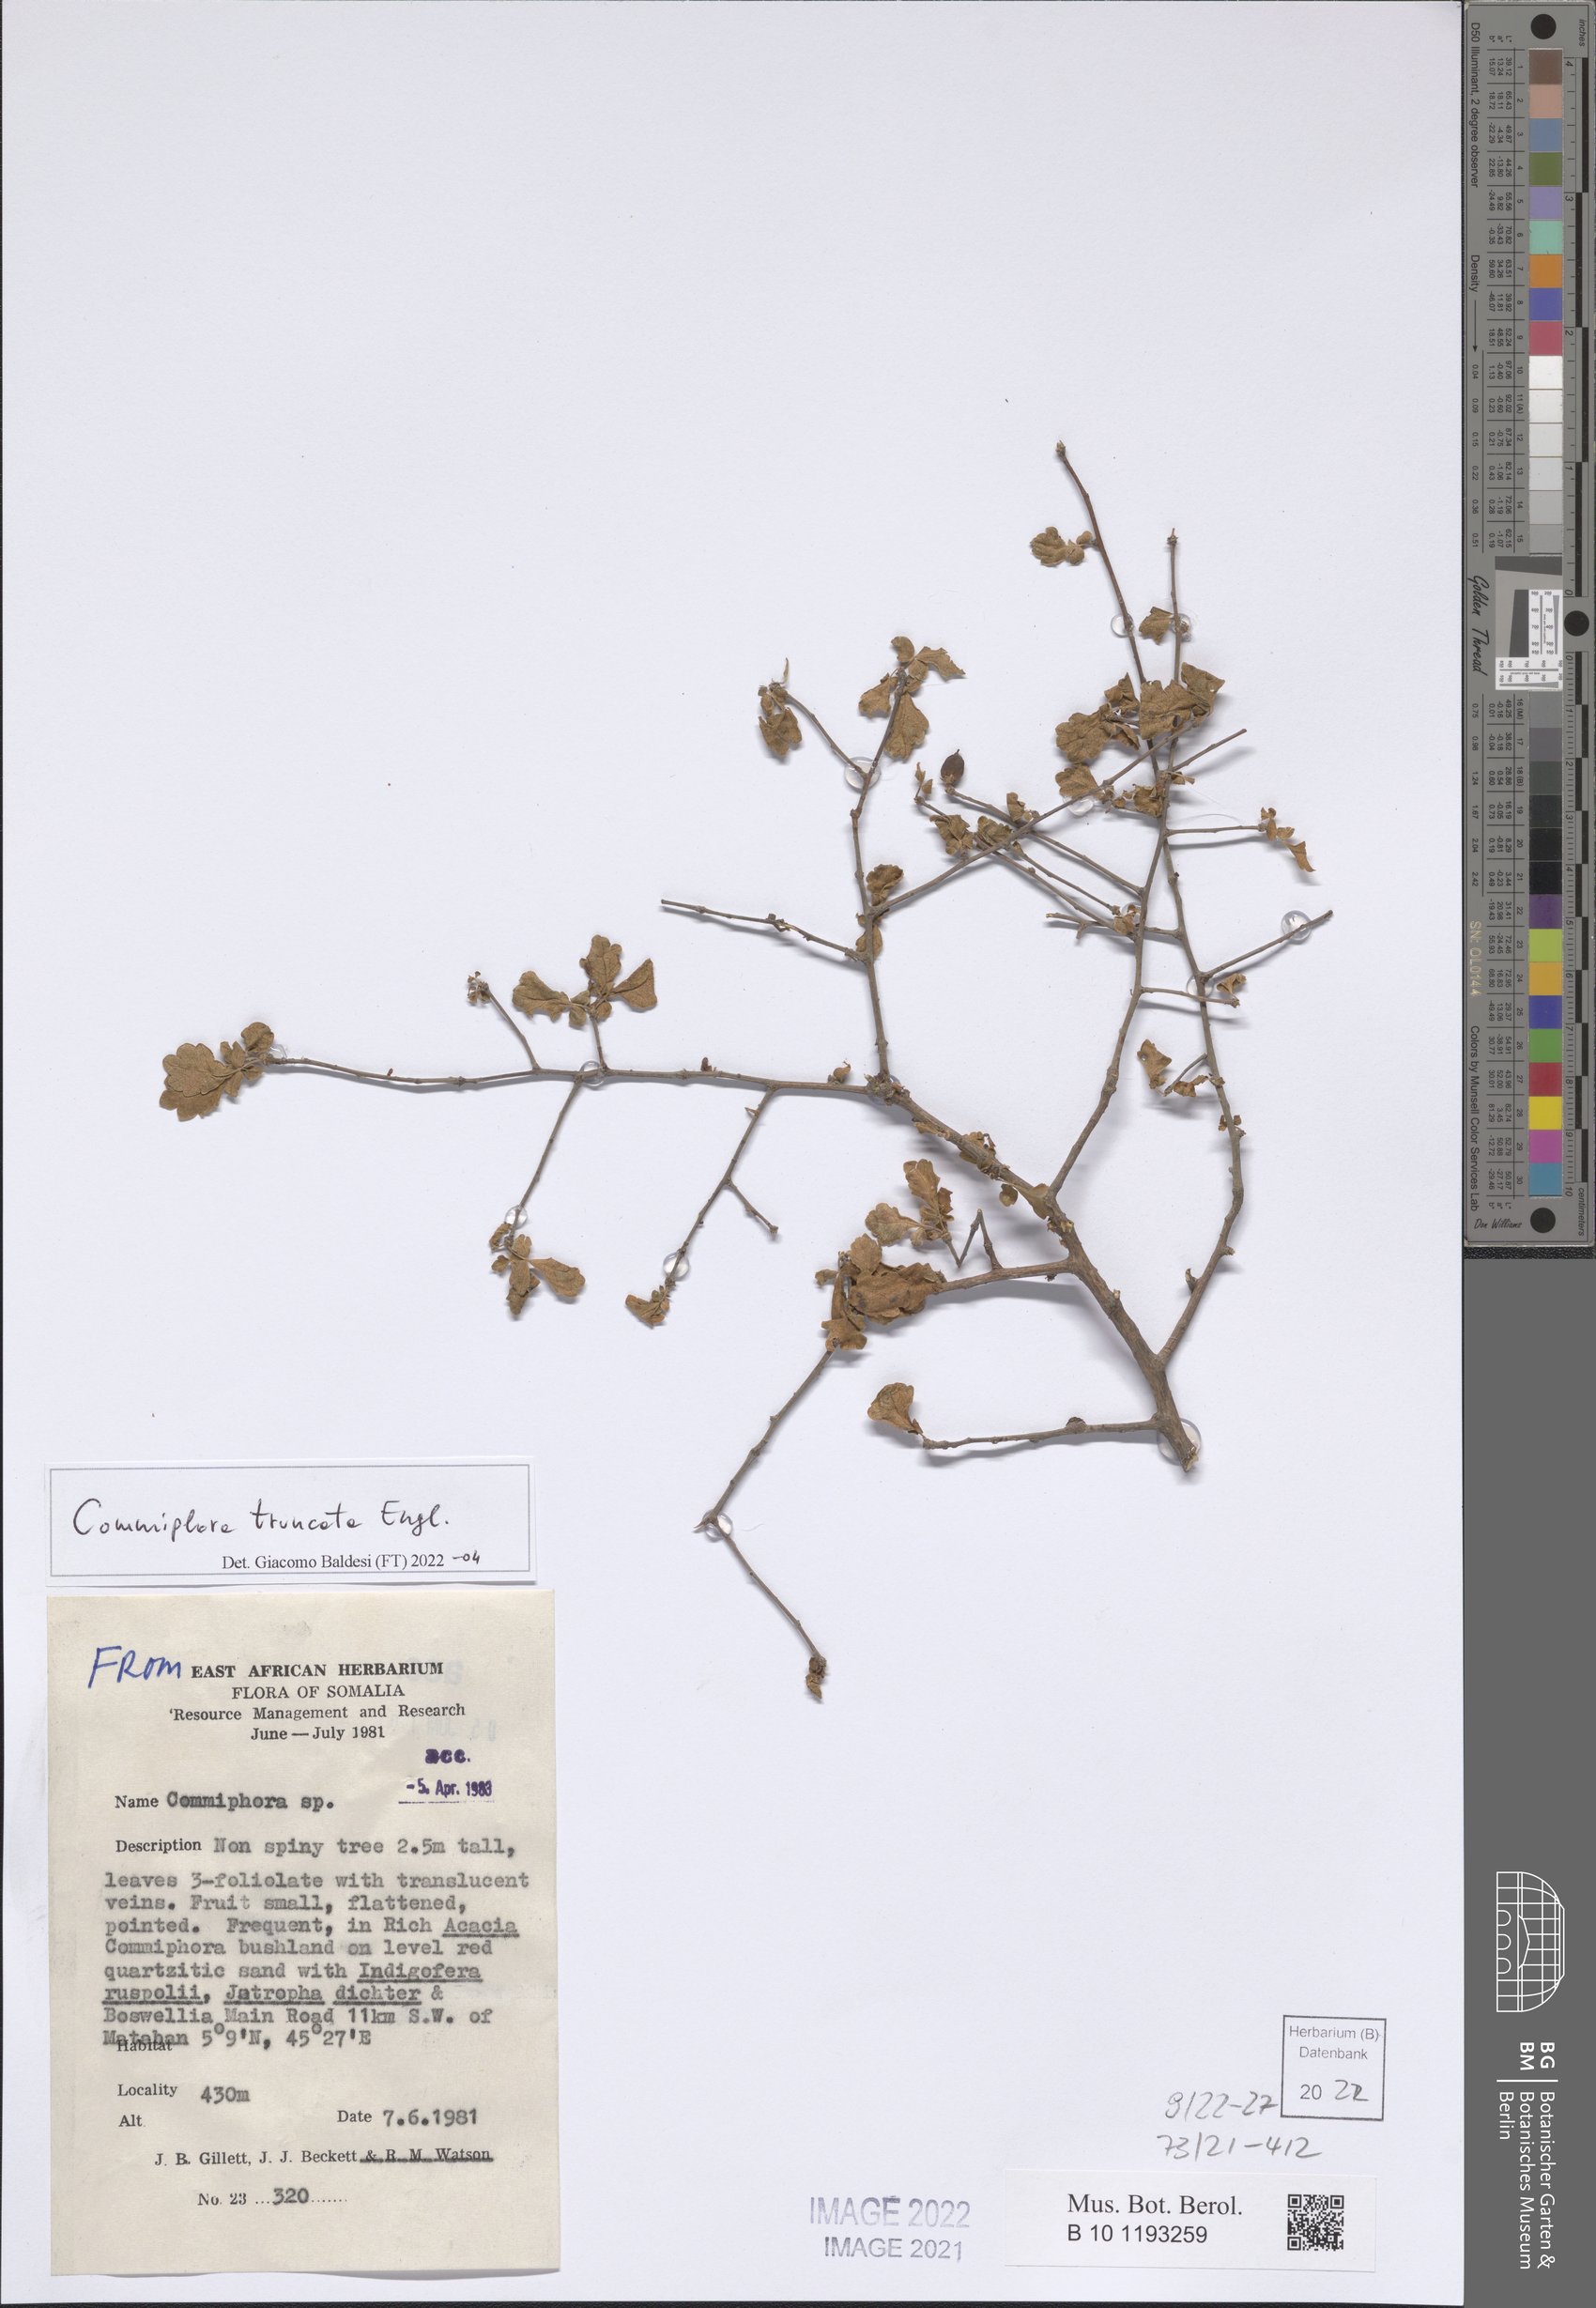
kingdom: Plantae
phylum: Tracheophyta
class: Magnoliopsida
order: Sapindales
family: Burseraceae
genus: Commiphora
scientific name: Commiphora truncata
